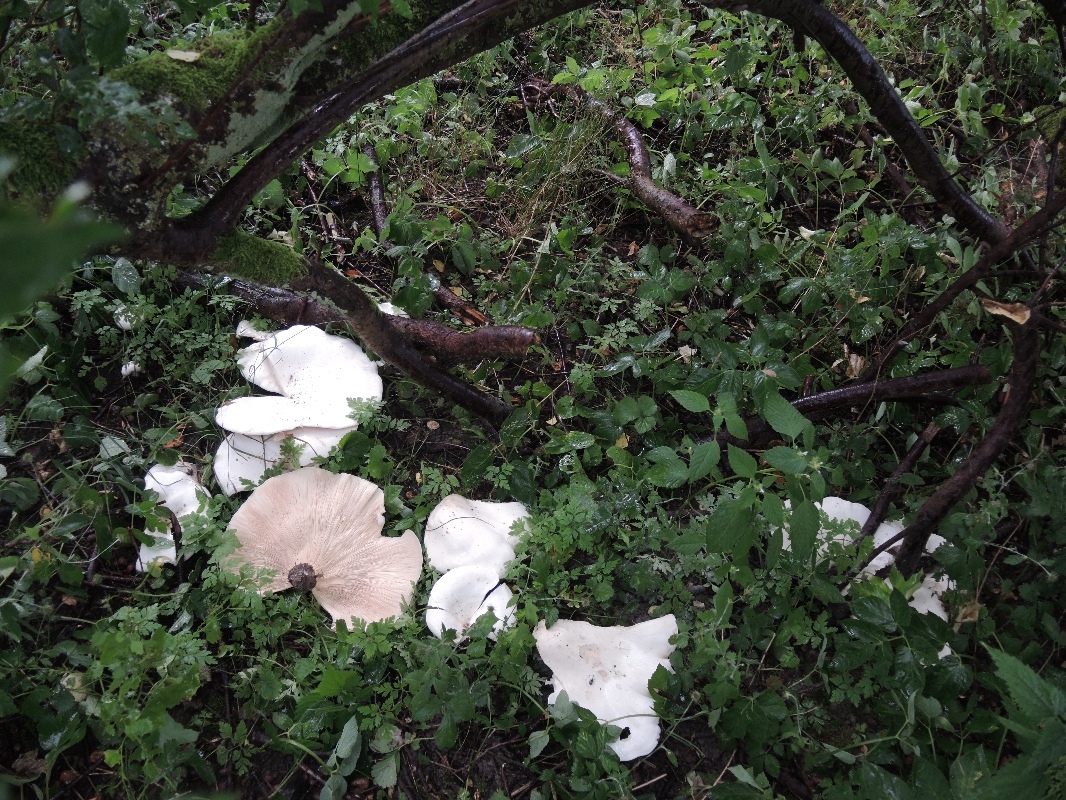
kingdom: Fungi
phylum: Basidiomycota
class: Agaricomycetes
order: Agaricales
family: Tricholomataceae
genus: Aspropaxillus
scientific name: Aspropaxillus giganteus
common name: kæmpe-tragtridderhat
